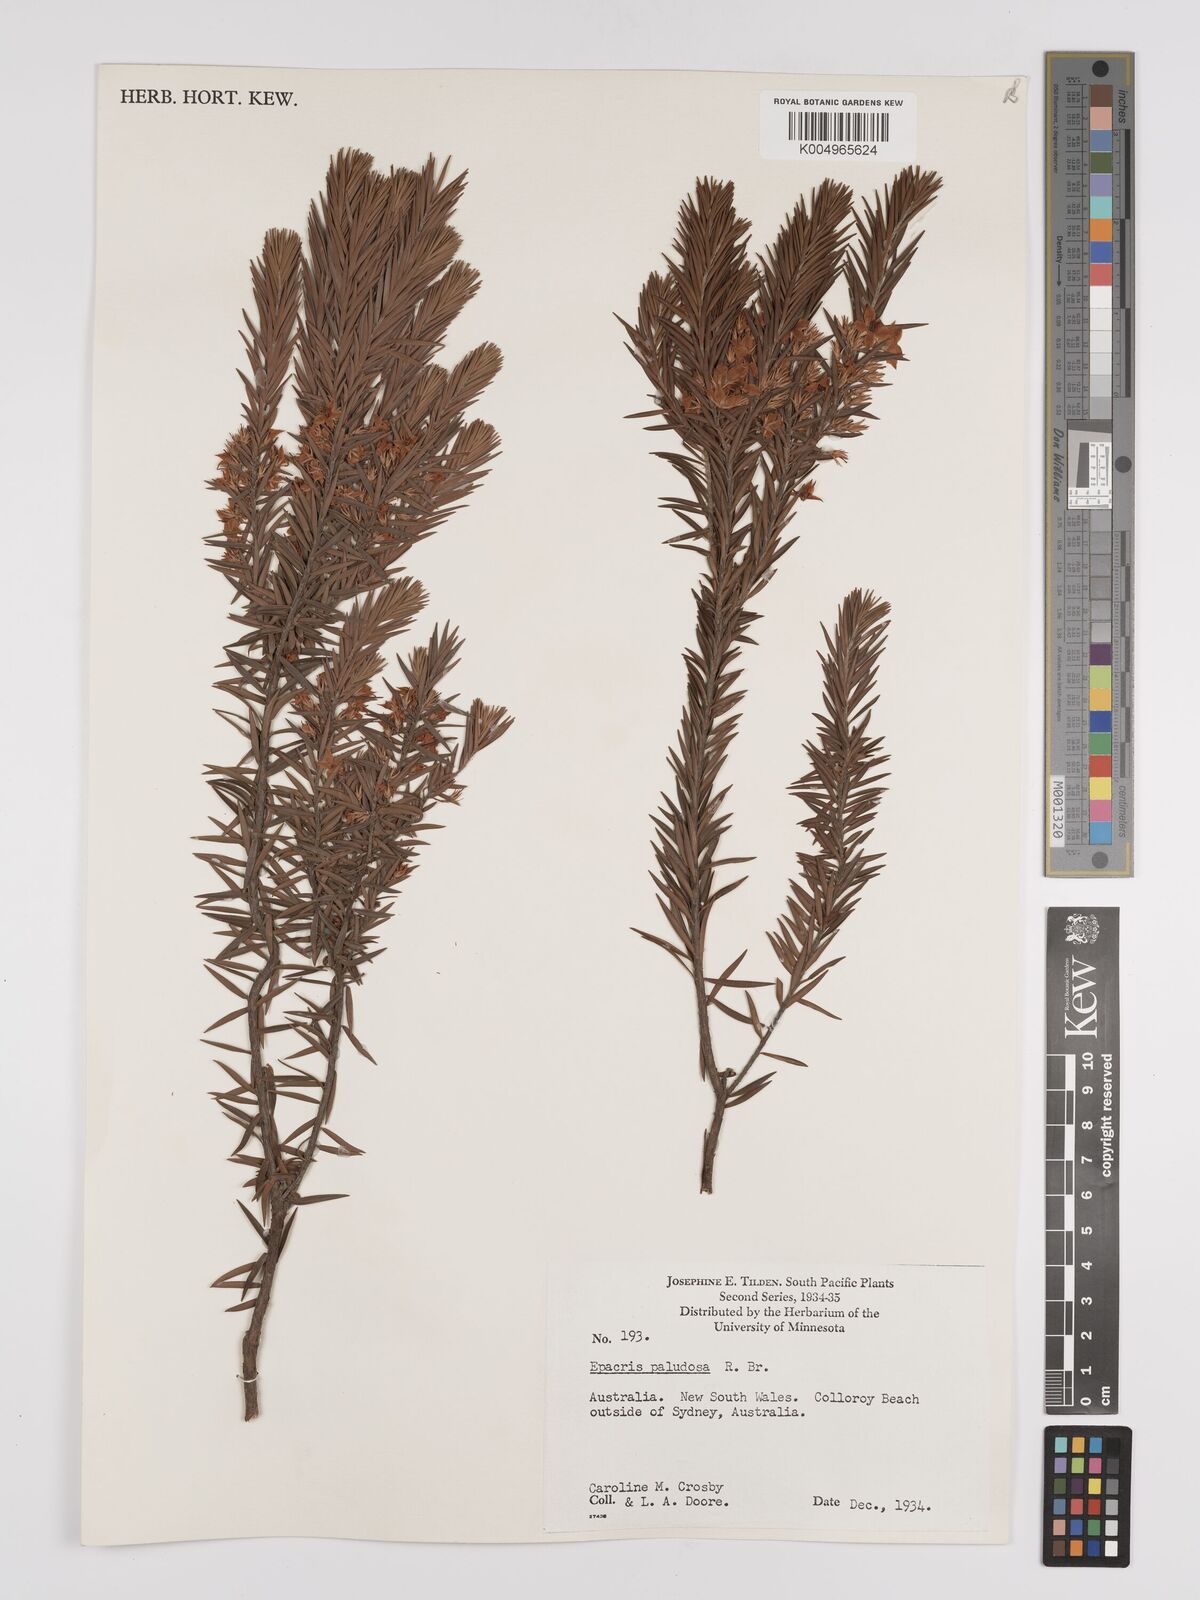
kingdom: Plantae
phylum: Tracheophyta
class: Magnoliopsida
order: Ericales
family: Ericaceae
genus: Epacris
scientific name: Epacris paludosa
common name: Swamp-heath
